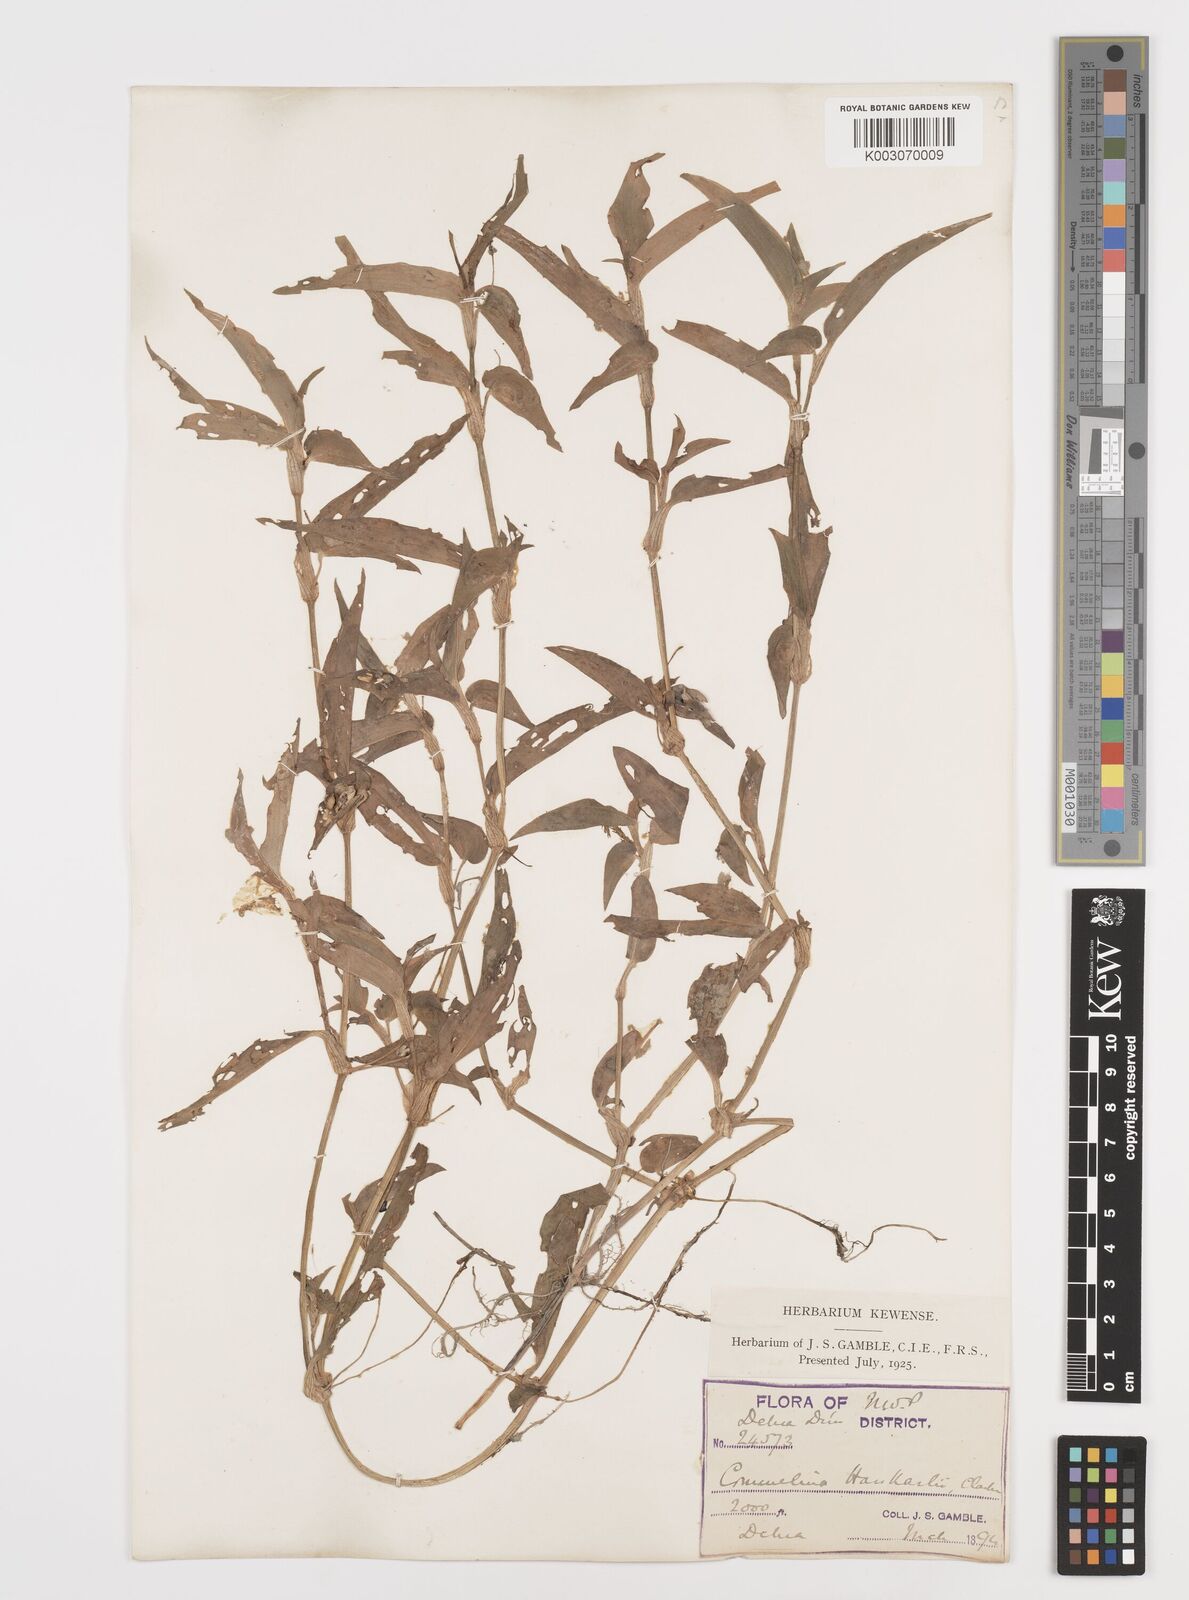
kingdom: Plantae
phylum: Tracheophyta
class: Liliopsida
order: Commelinales
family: Commelinaceae
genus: Commelina
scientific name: Commelina caroliniana
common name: Carolina dayflower
